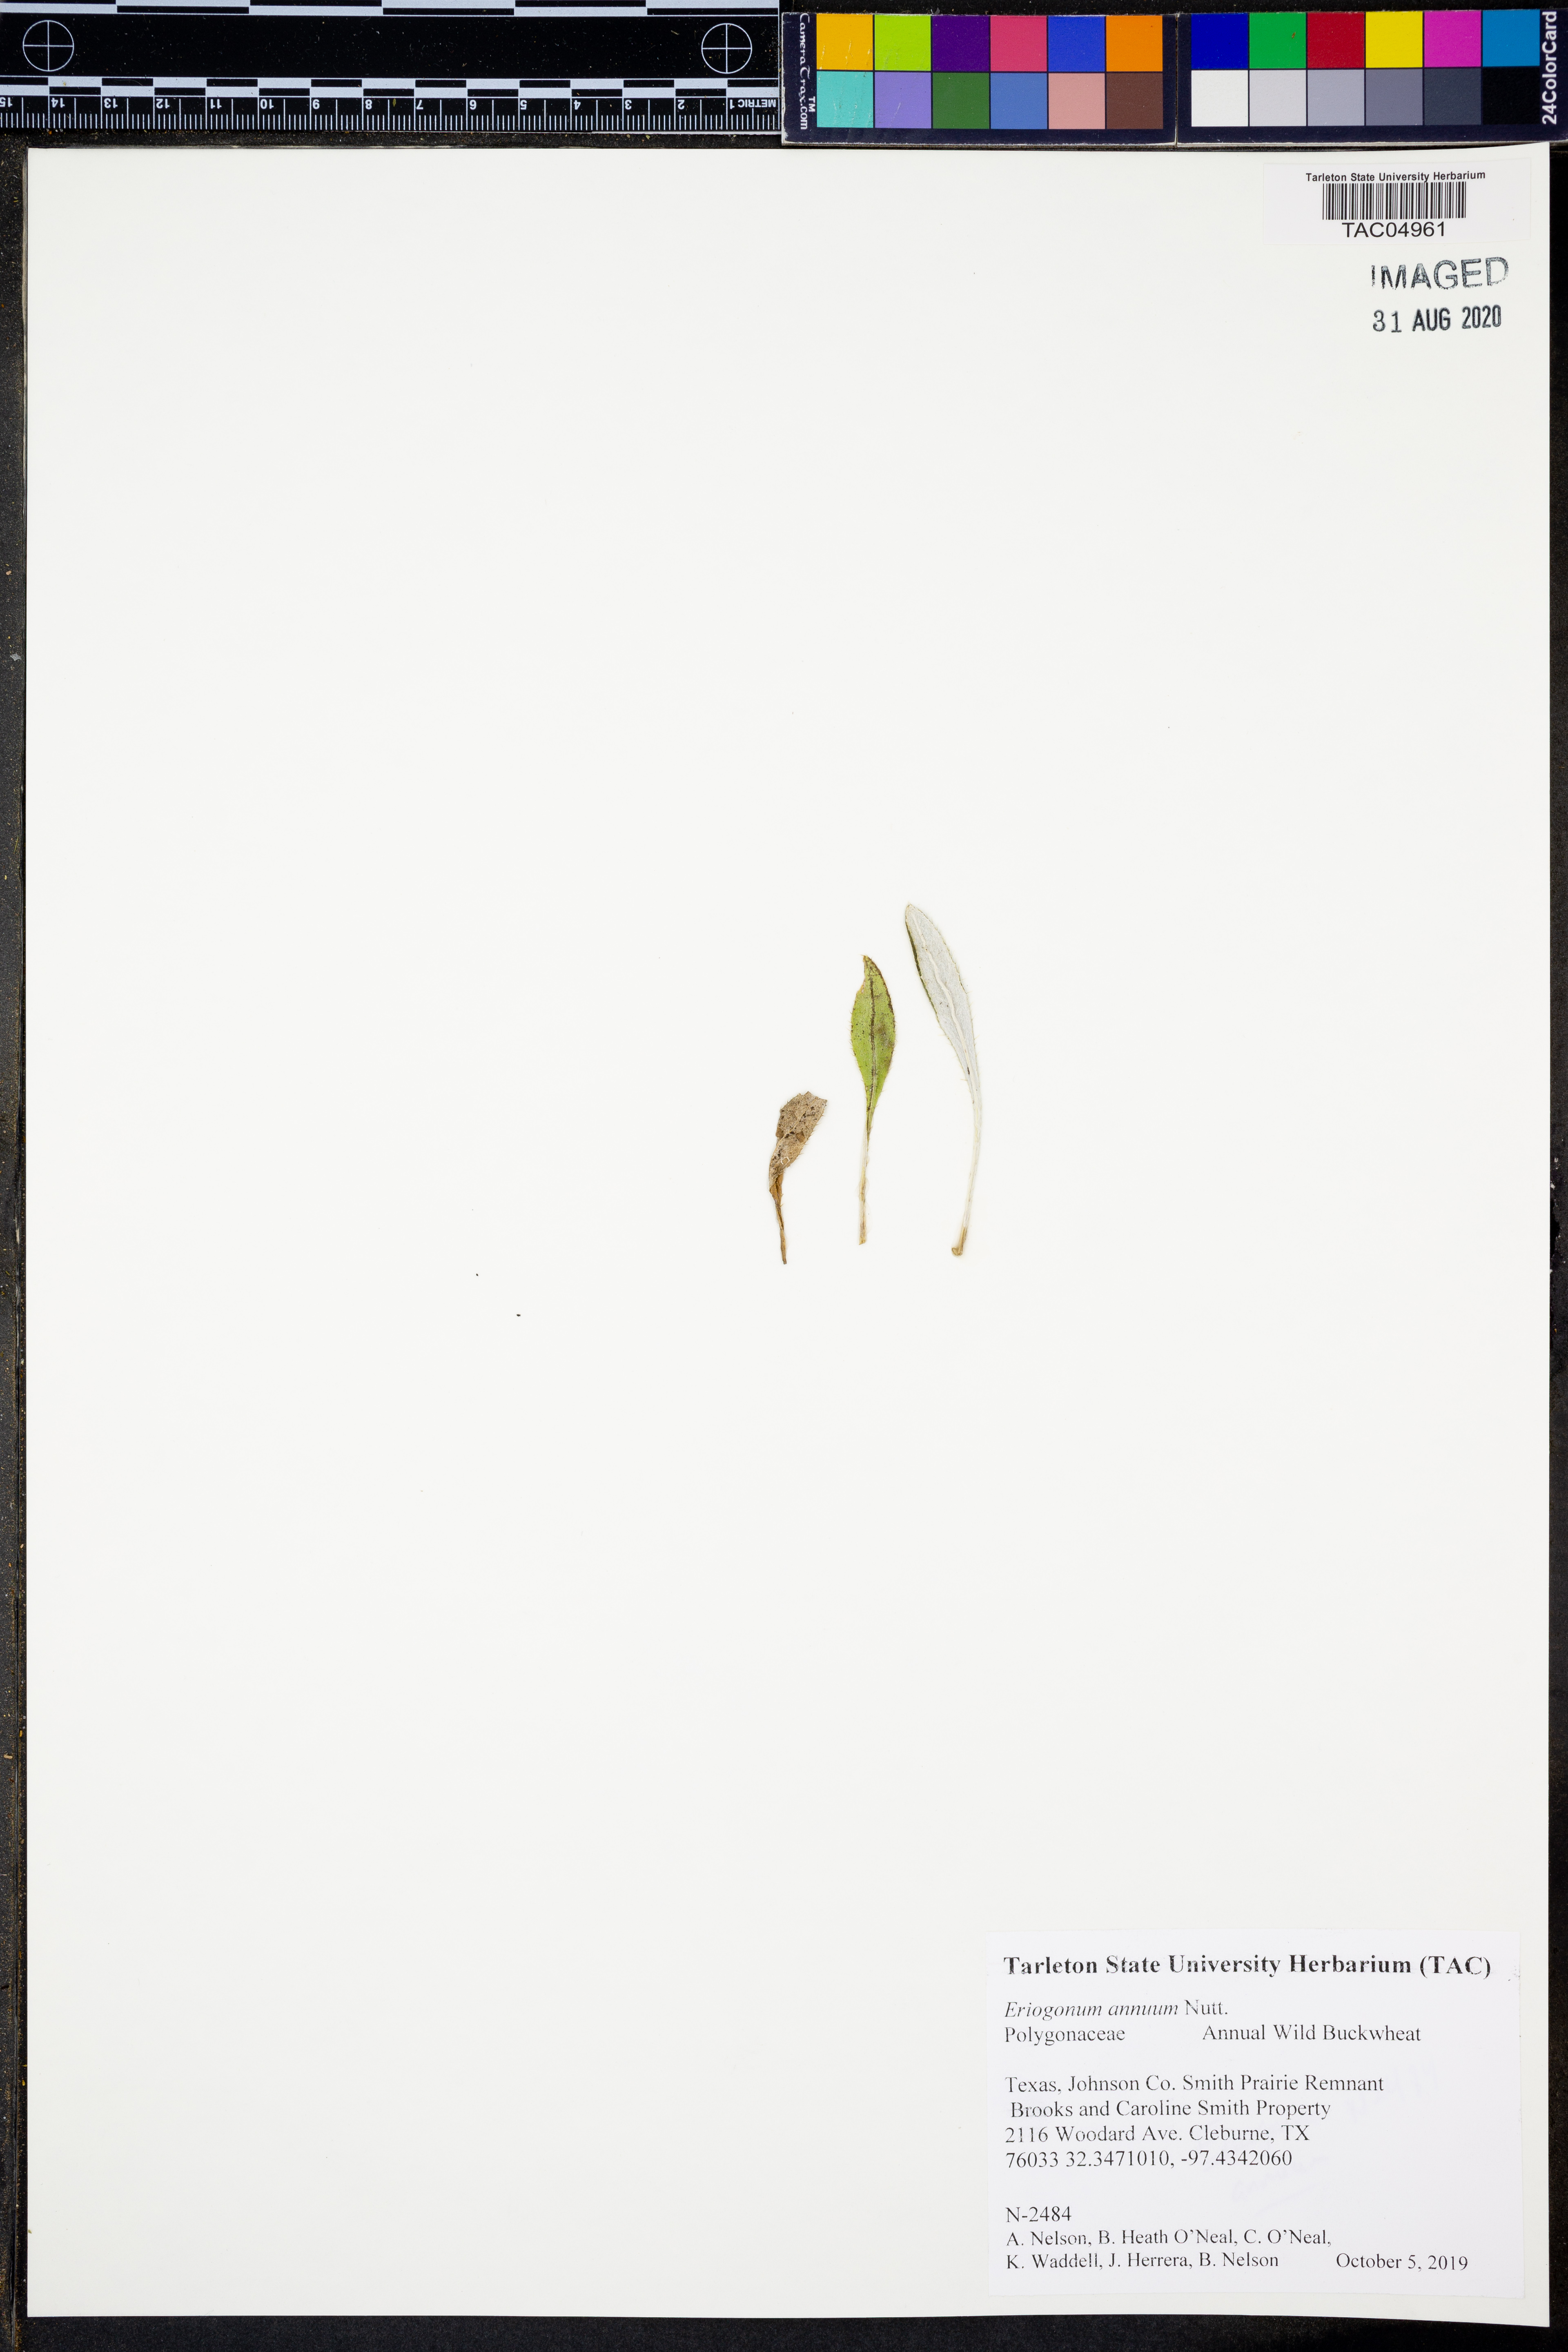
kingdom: Plantae
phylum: Tracheophyta
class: Magnoliopsida
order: Caryophyllales
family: Polygonaceae
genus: Eriogonum
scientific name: Eriogonum annuum
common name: Annual wild buckwheat
